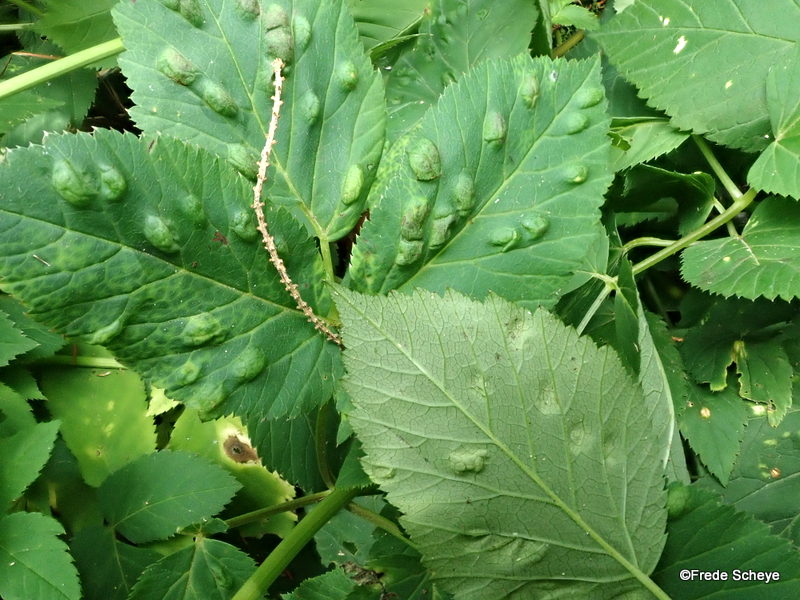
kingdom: Fungi
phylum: Ascomycota
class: Taphrinomycetes
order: Taphrinales
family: Taphrinaceae
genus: Protomyces
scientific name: Protomyces macrosporus
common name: skvalderkål-vablesæk
